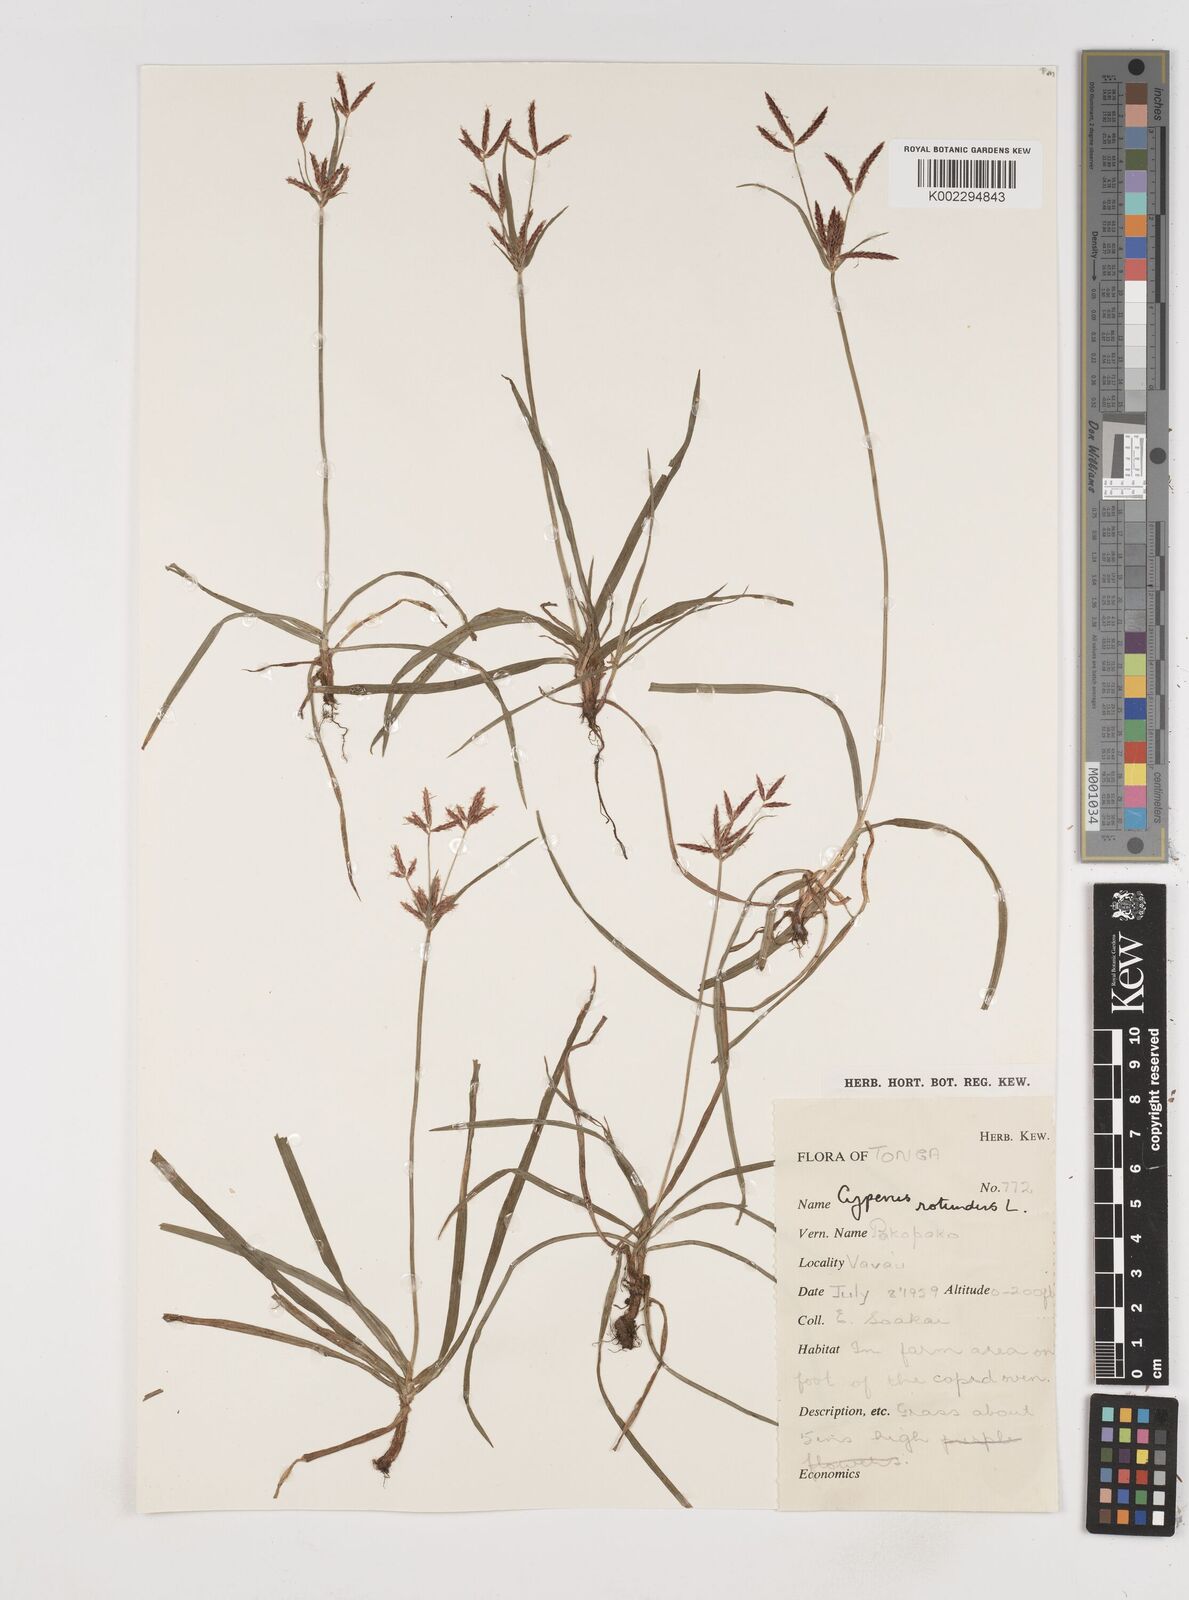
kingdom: Plantae
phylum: Tracheophyta
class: Liliopsida
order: Poales
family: Cyperaceae
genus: Cyperus
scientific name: Cyperus rotundus
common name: Nutgrass
